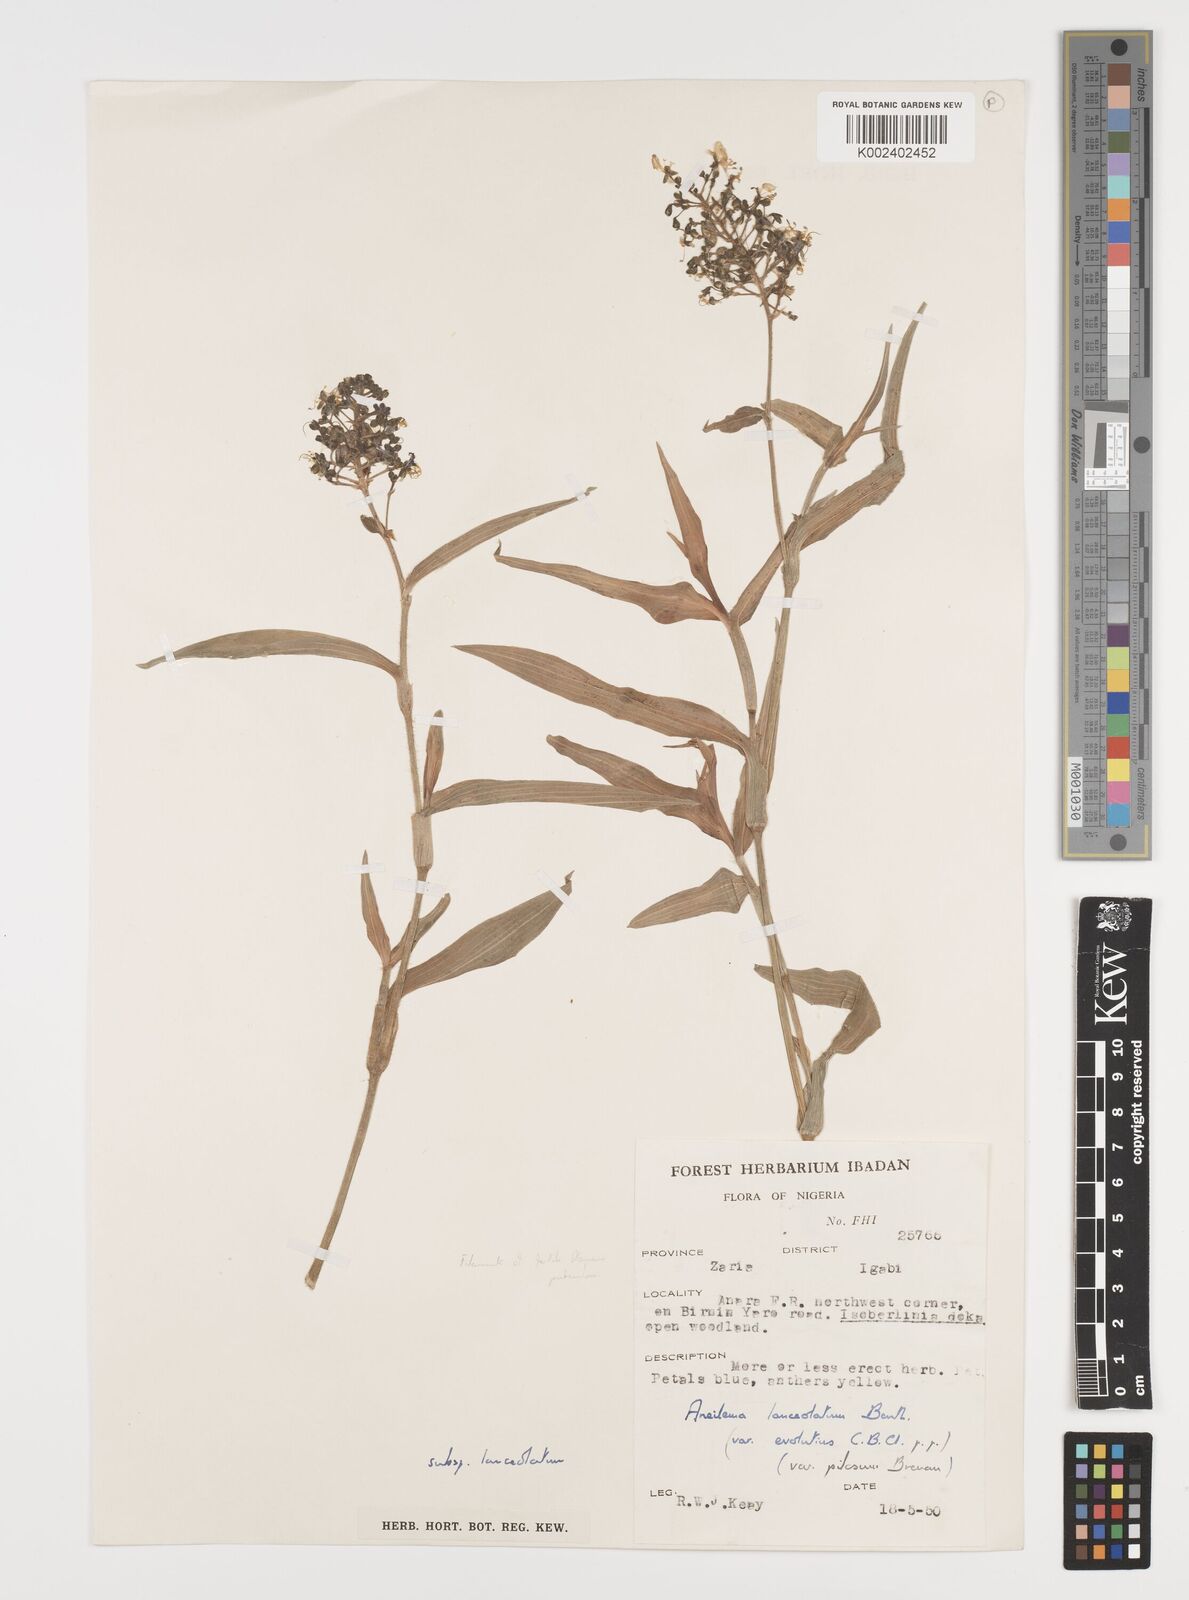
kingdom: Plantae
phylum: Tracheophyta
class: Liliopsida
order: Commelinales
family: Commelinaceae
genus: Aneilema
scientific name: Aneilema lanceolatum
